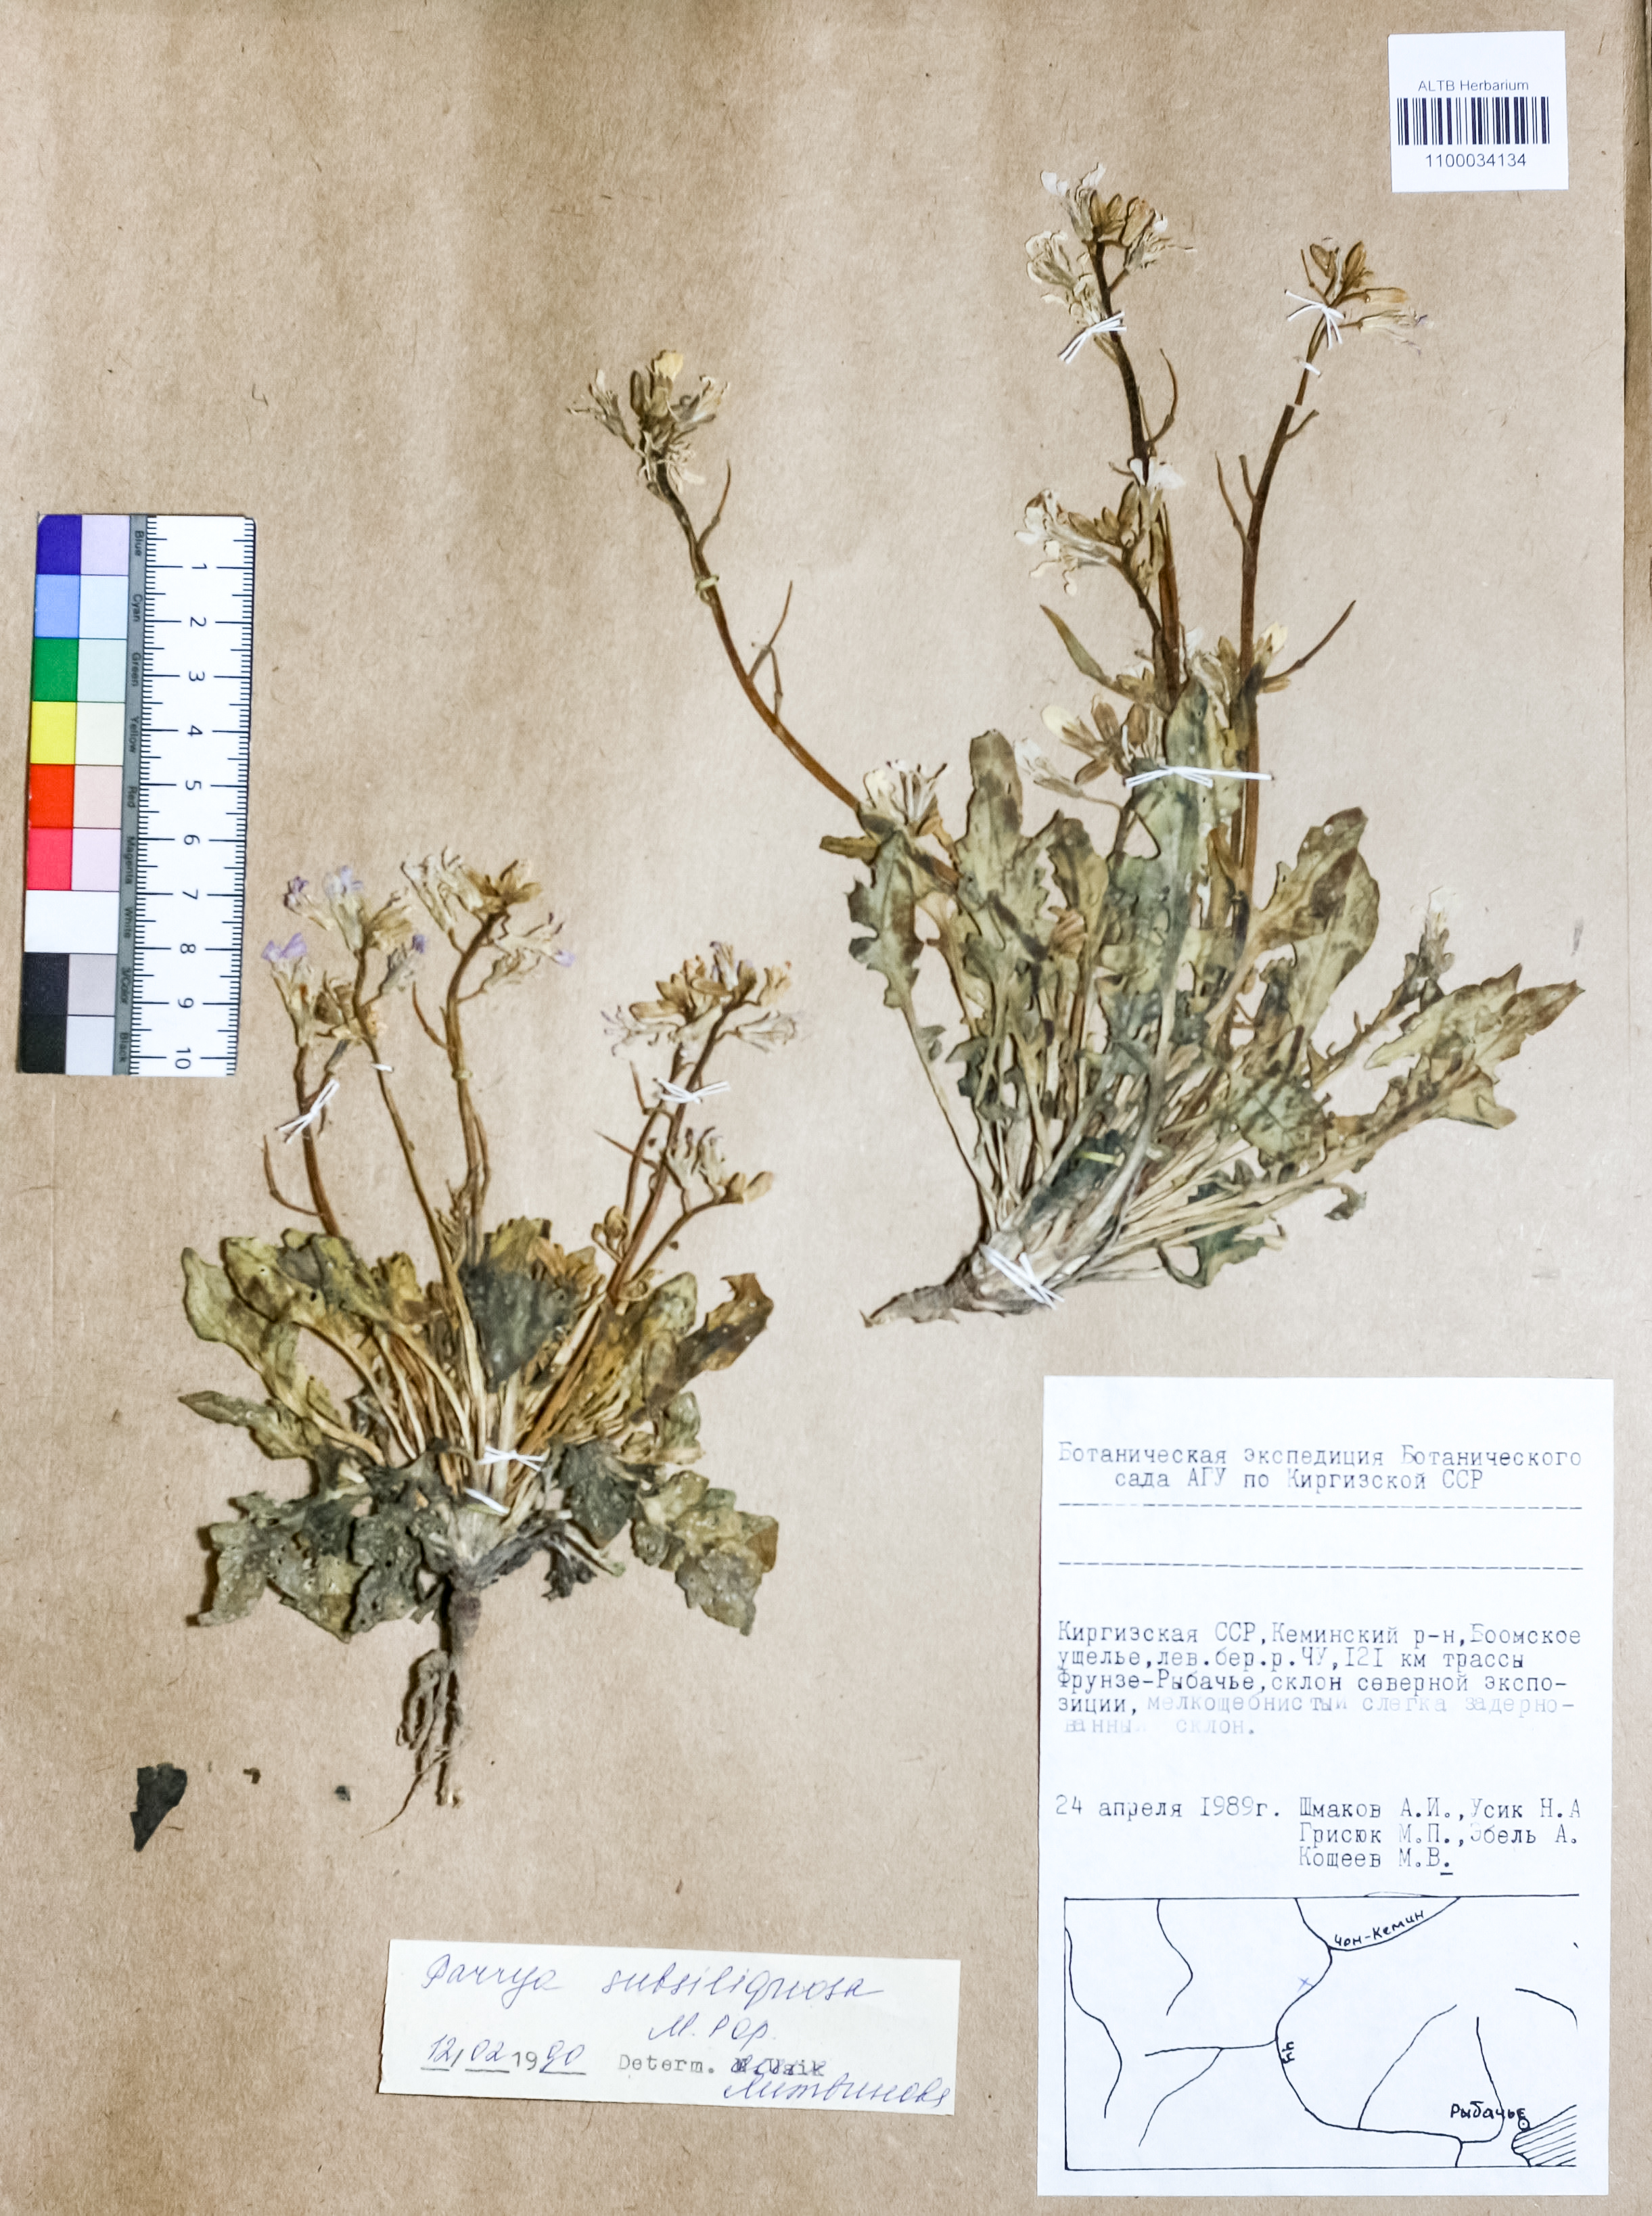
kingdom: Plantae
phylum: Tracheophyta
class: Magnoliopsida
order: Brassicales
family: Brassicaceae
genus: Parrya
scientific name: Parrya subsiliquosa
